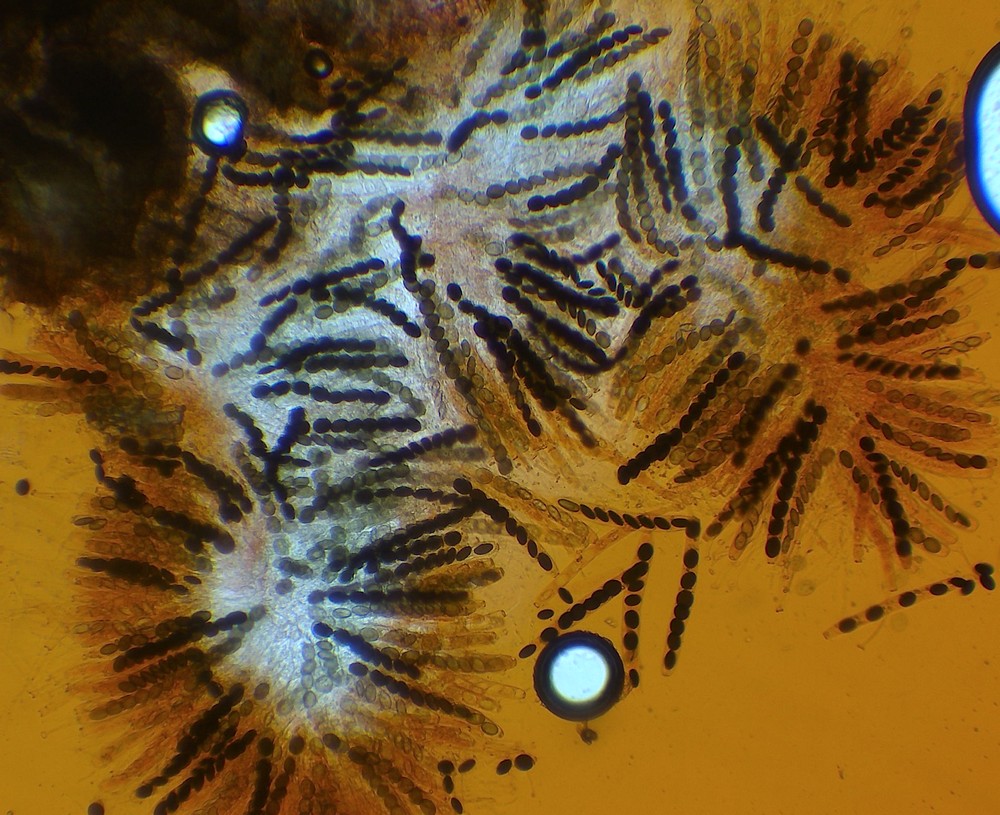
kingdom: Fungi
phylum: Ascomycota
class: Sordariomycetes
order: Coniochaetales
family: Coniochaetaceae
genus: Coniochaeta
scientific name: Coniochaeta scatigena
